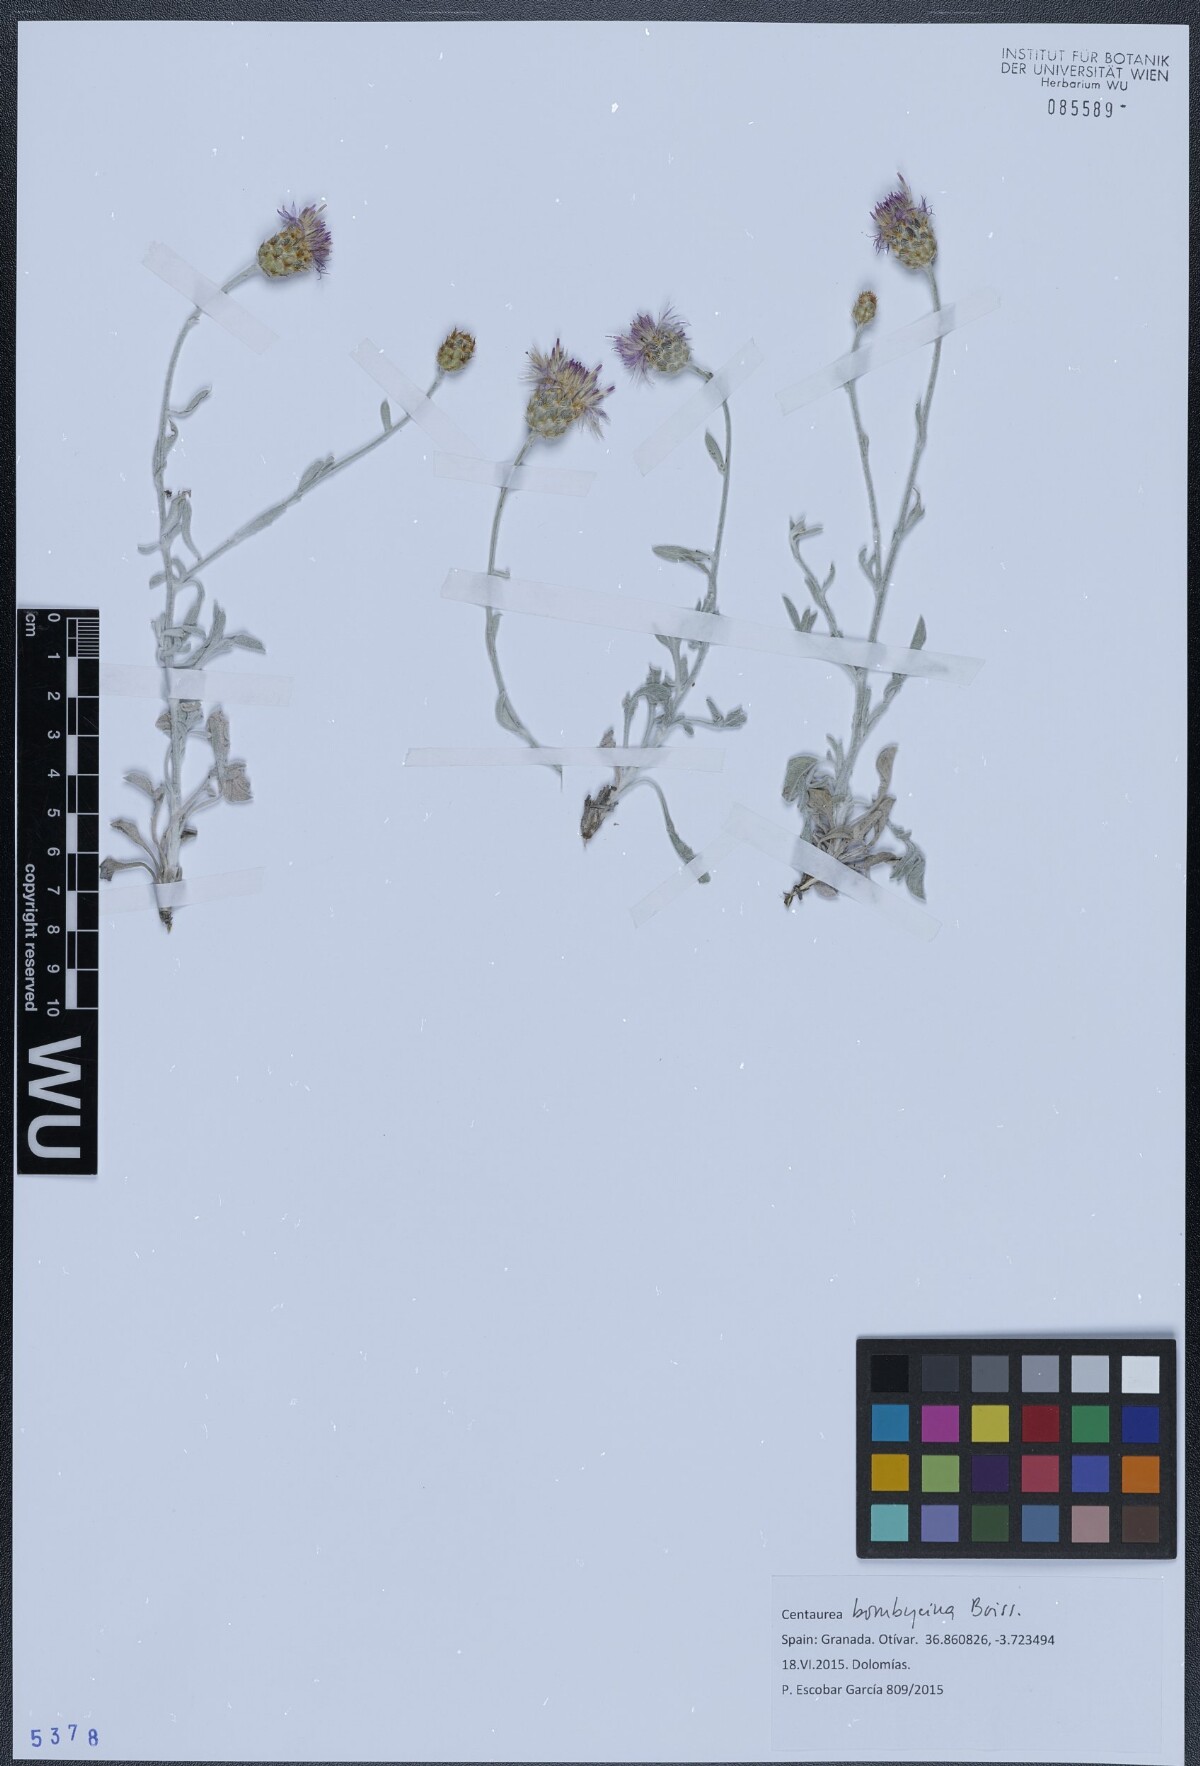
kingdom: Plantae
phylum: Tracheophyta
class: Magnoliopsida
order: Asterales
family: Asteraceae
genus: Centaurea
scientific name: Centaurea bombycina
